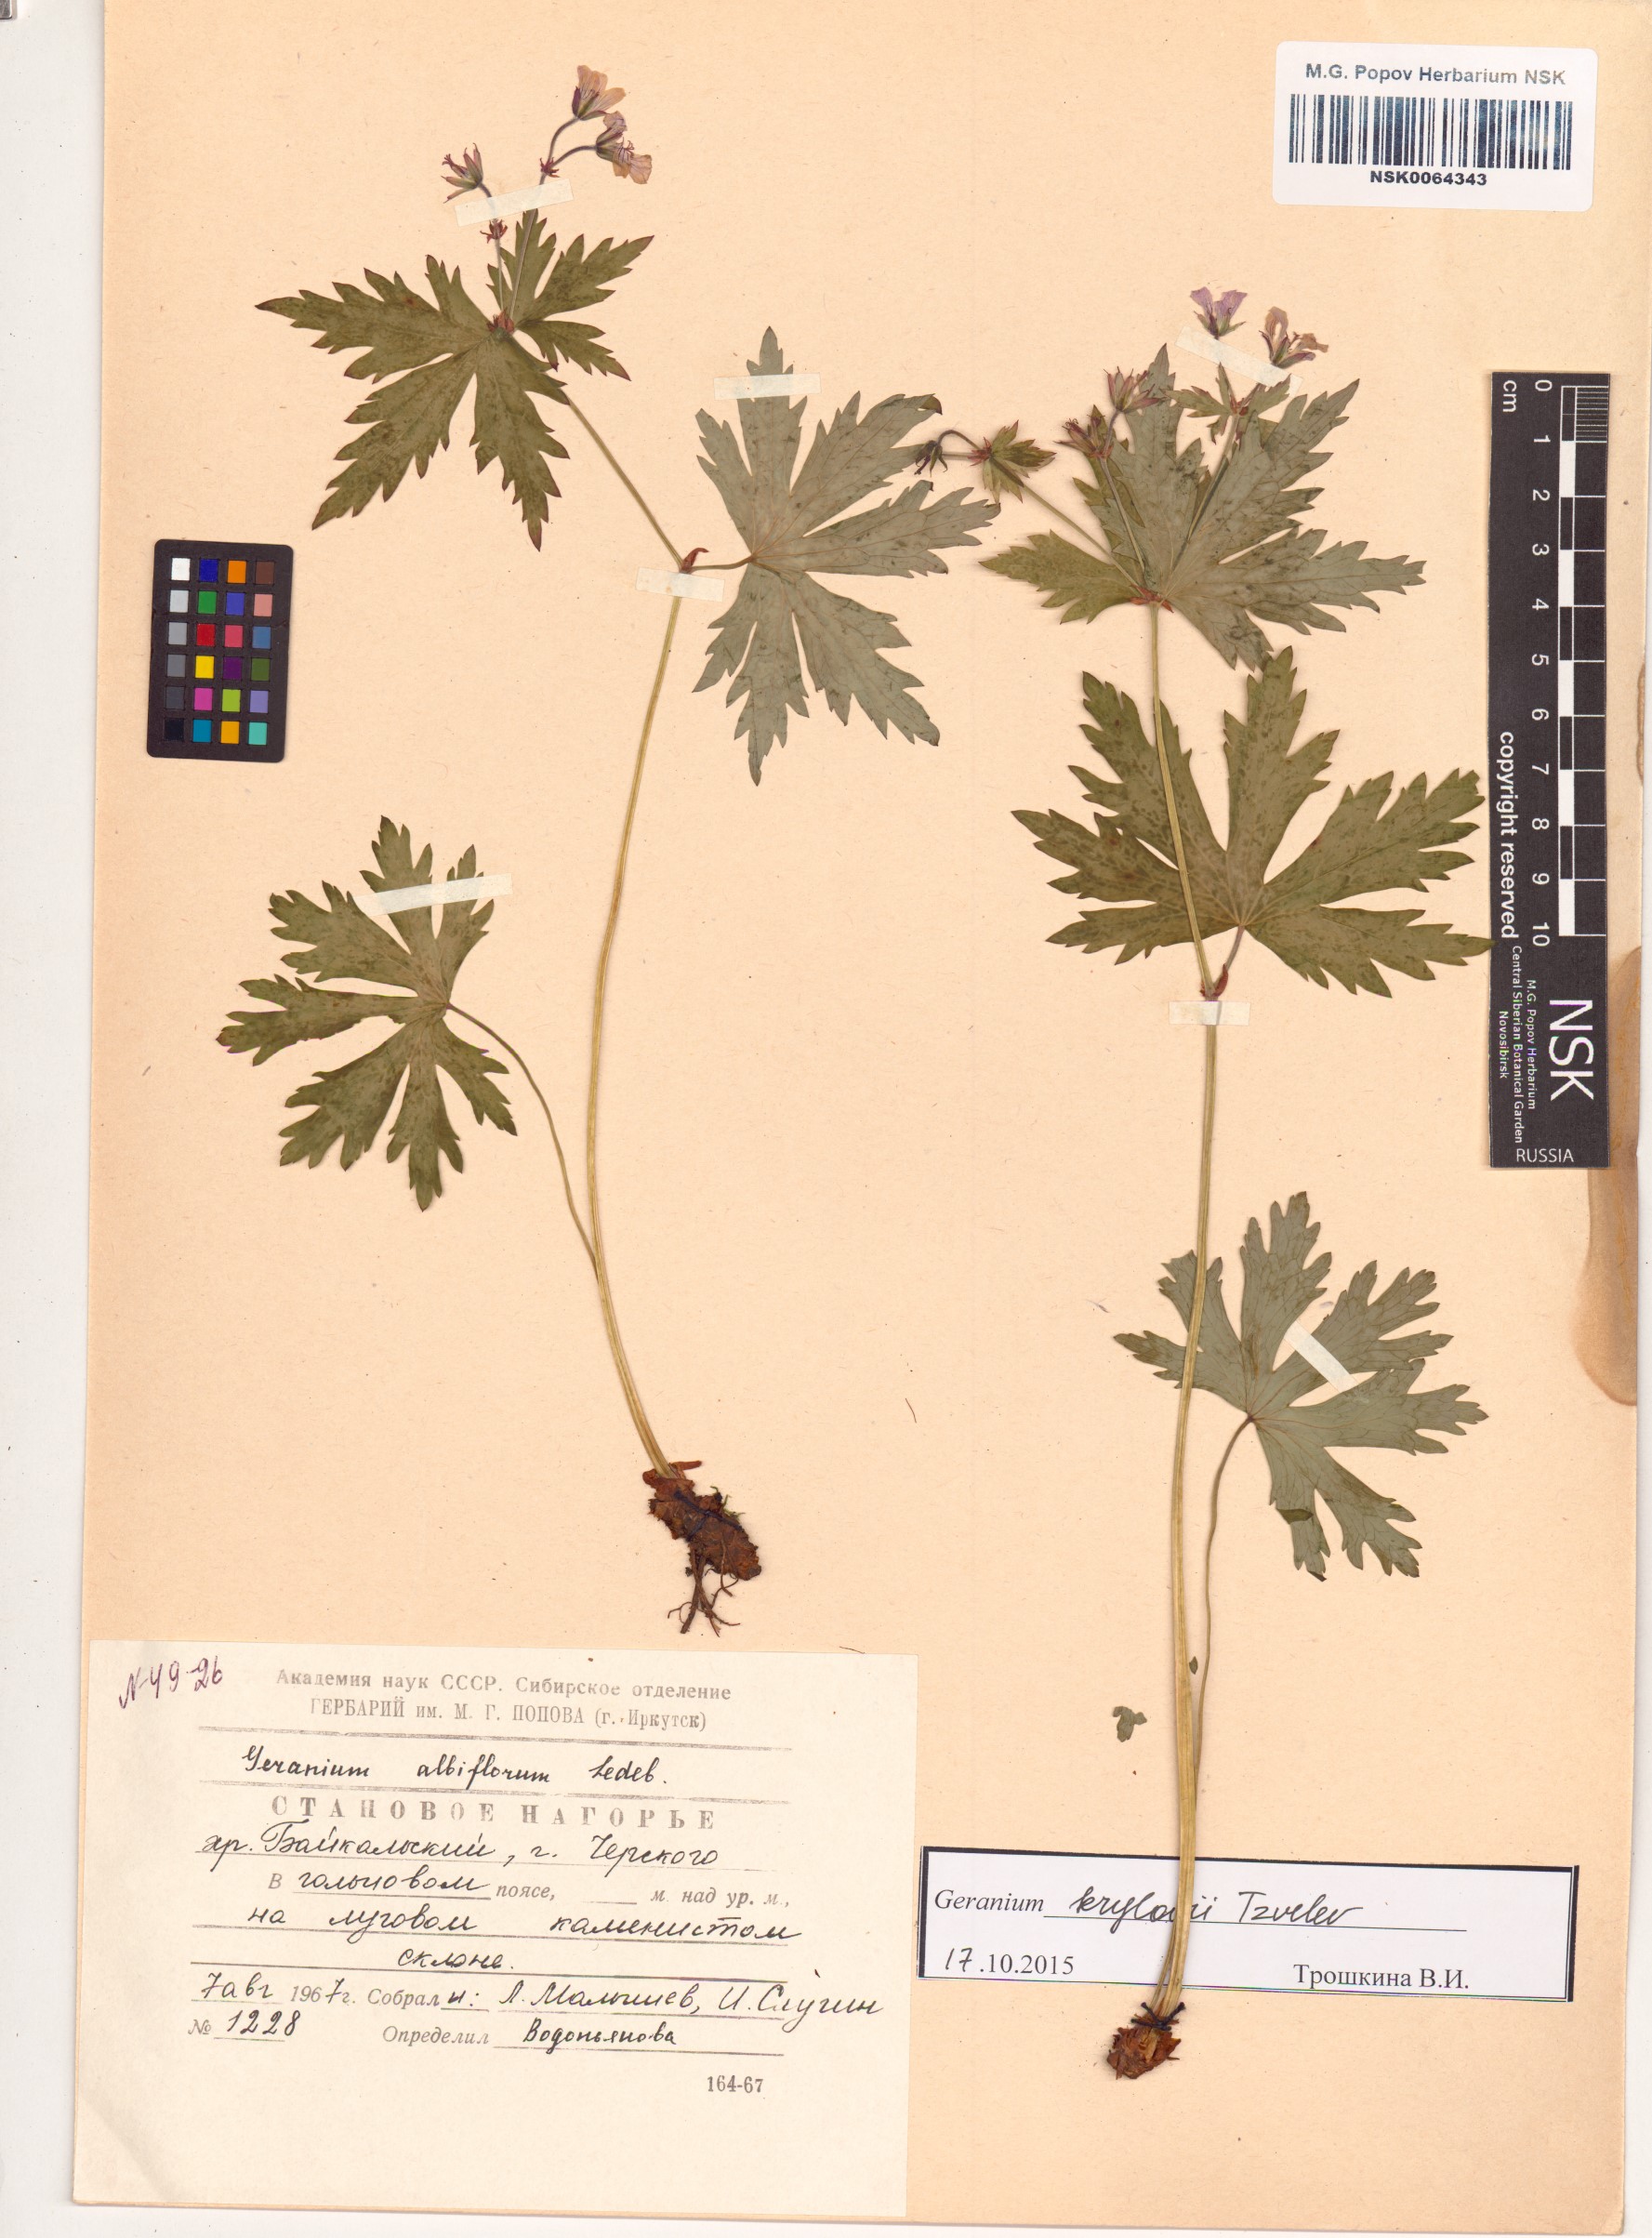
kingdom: Plantae
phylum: Tracheophyta
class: Magnoliopsida
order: Geraniales
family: Geraniaceae
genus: Geranium
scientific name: Geranium sylvaticum
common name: Wood crane's-bill
